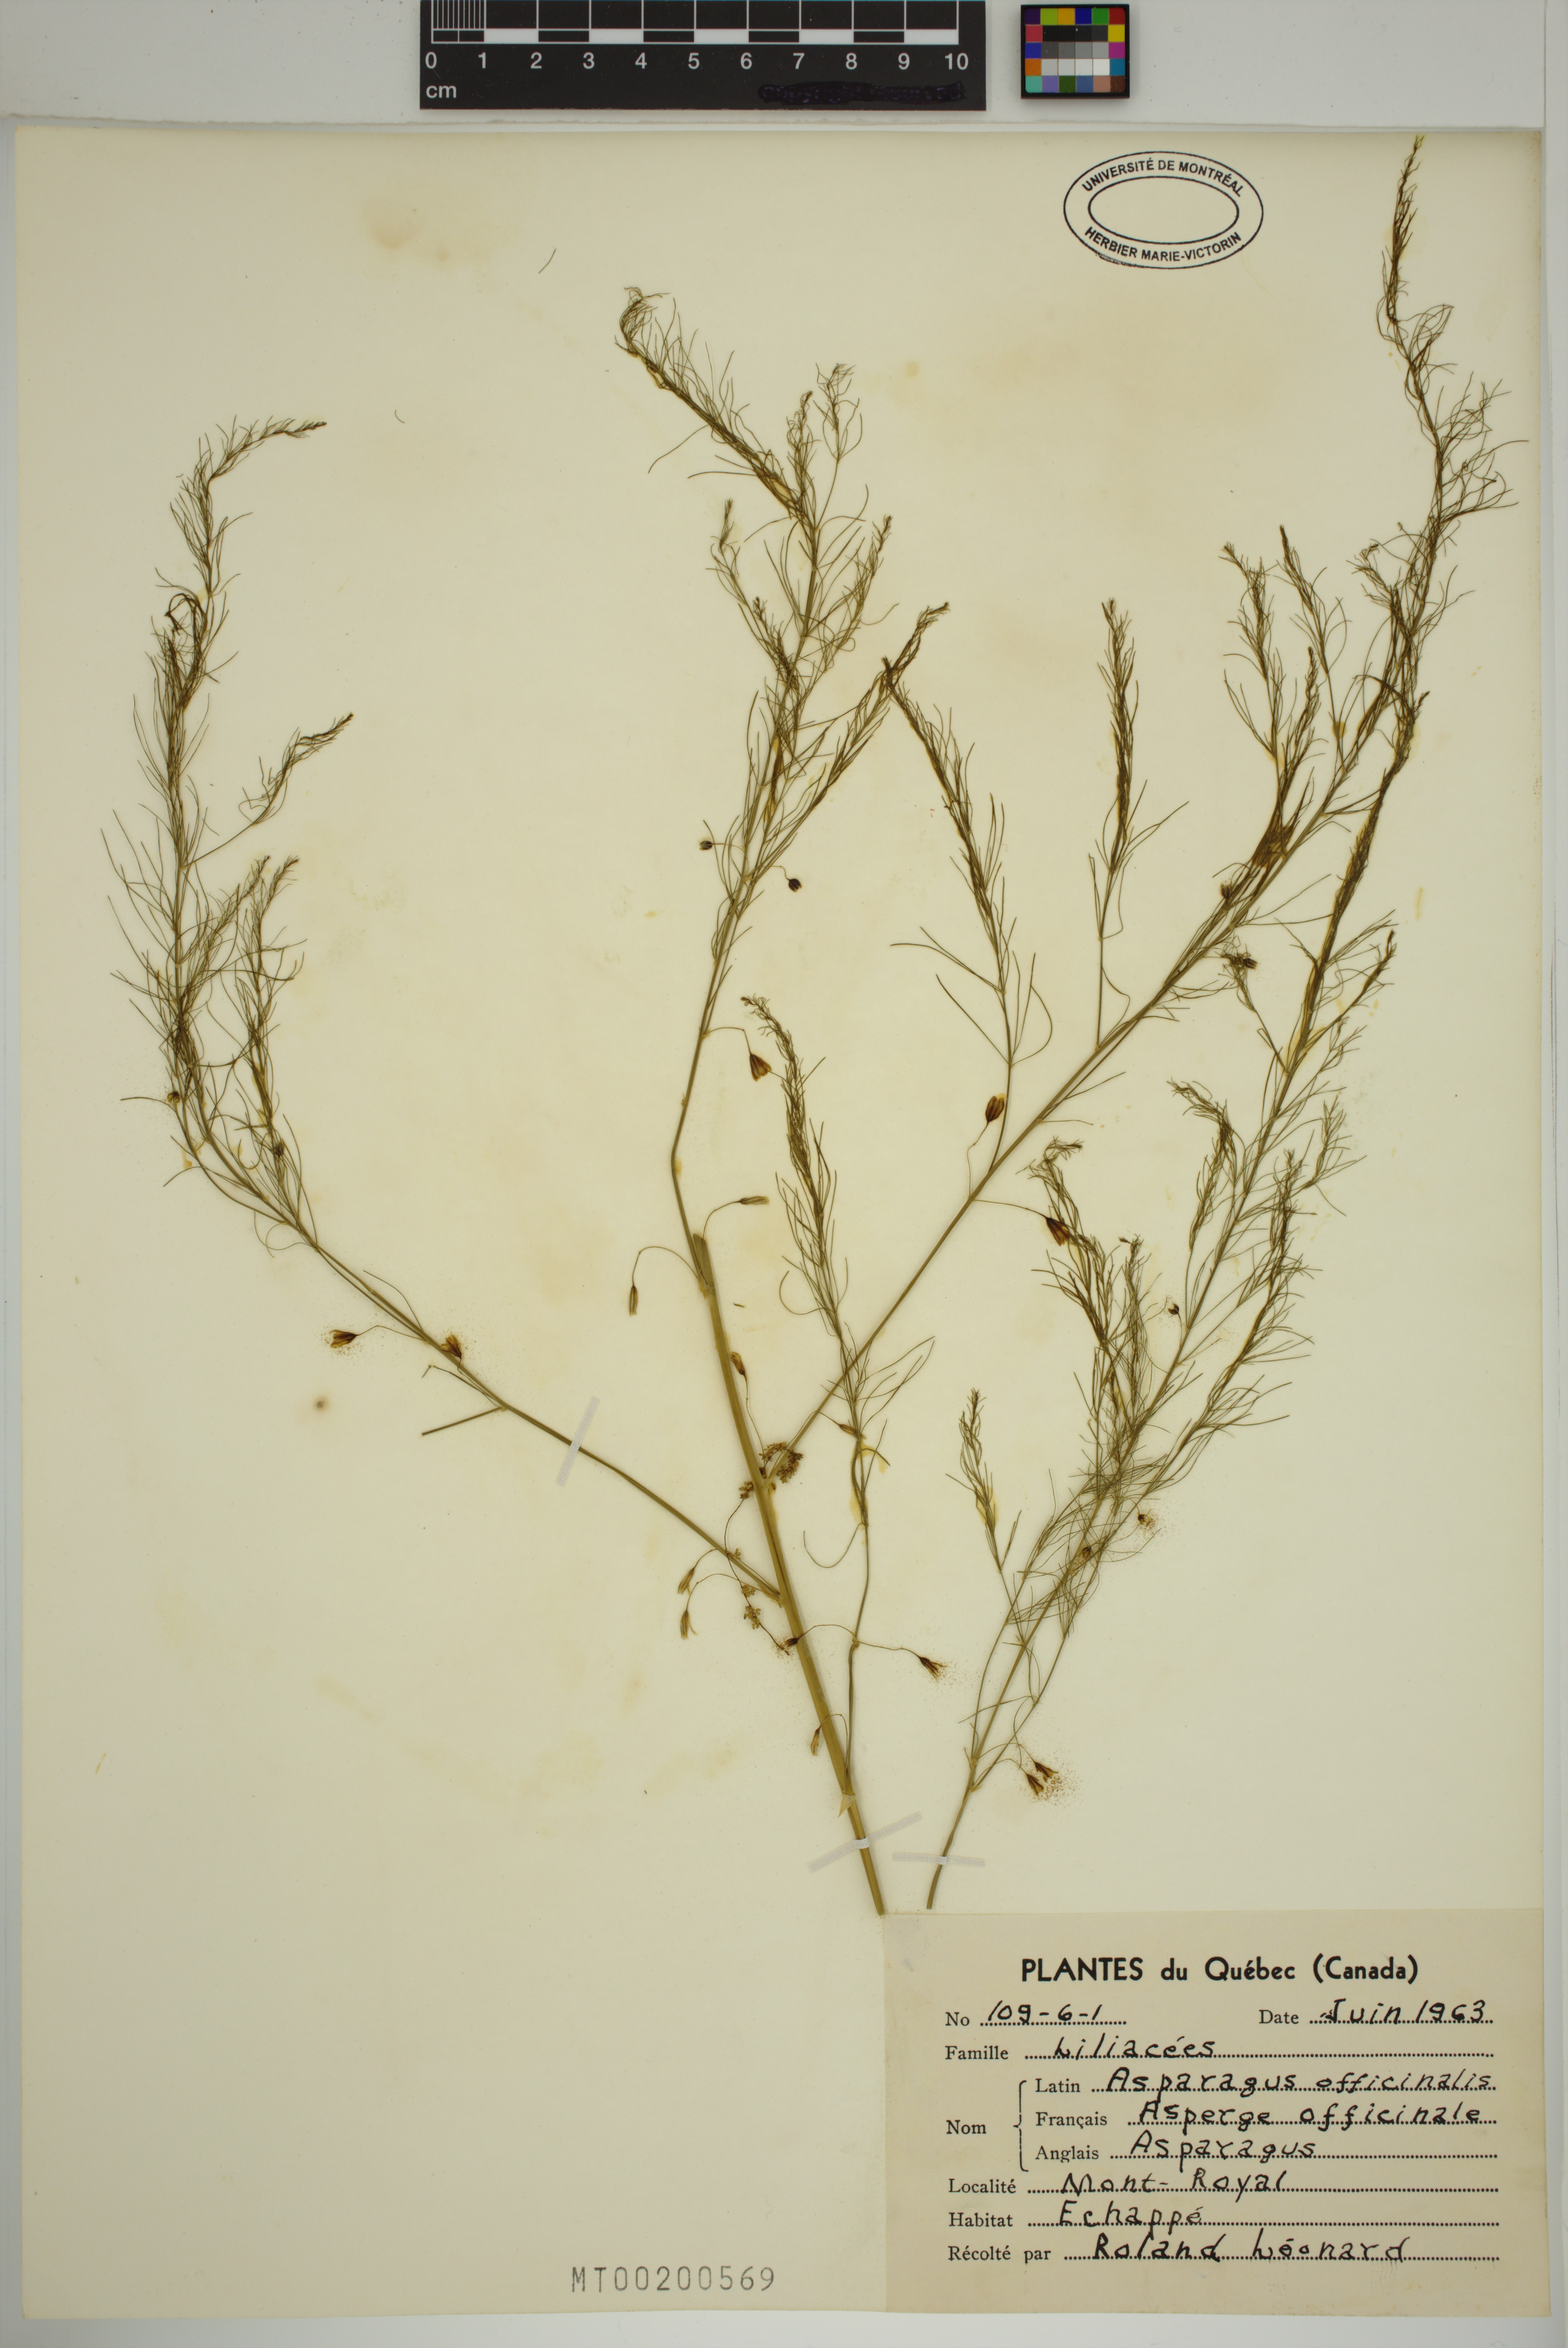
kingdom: Plantae
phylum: Tracheophyta
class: Liliopsida
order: Asparagales
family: Asparagaceae
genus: Asparagus
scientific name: Asparagus officinalis
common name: Garden asparagus
